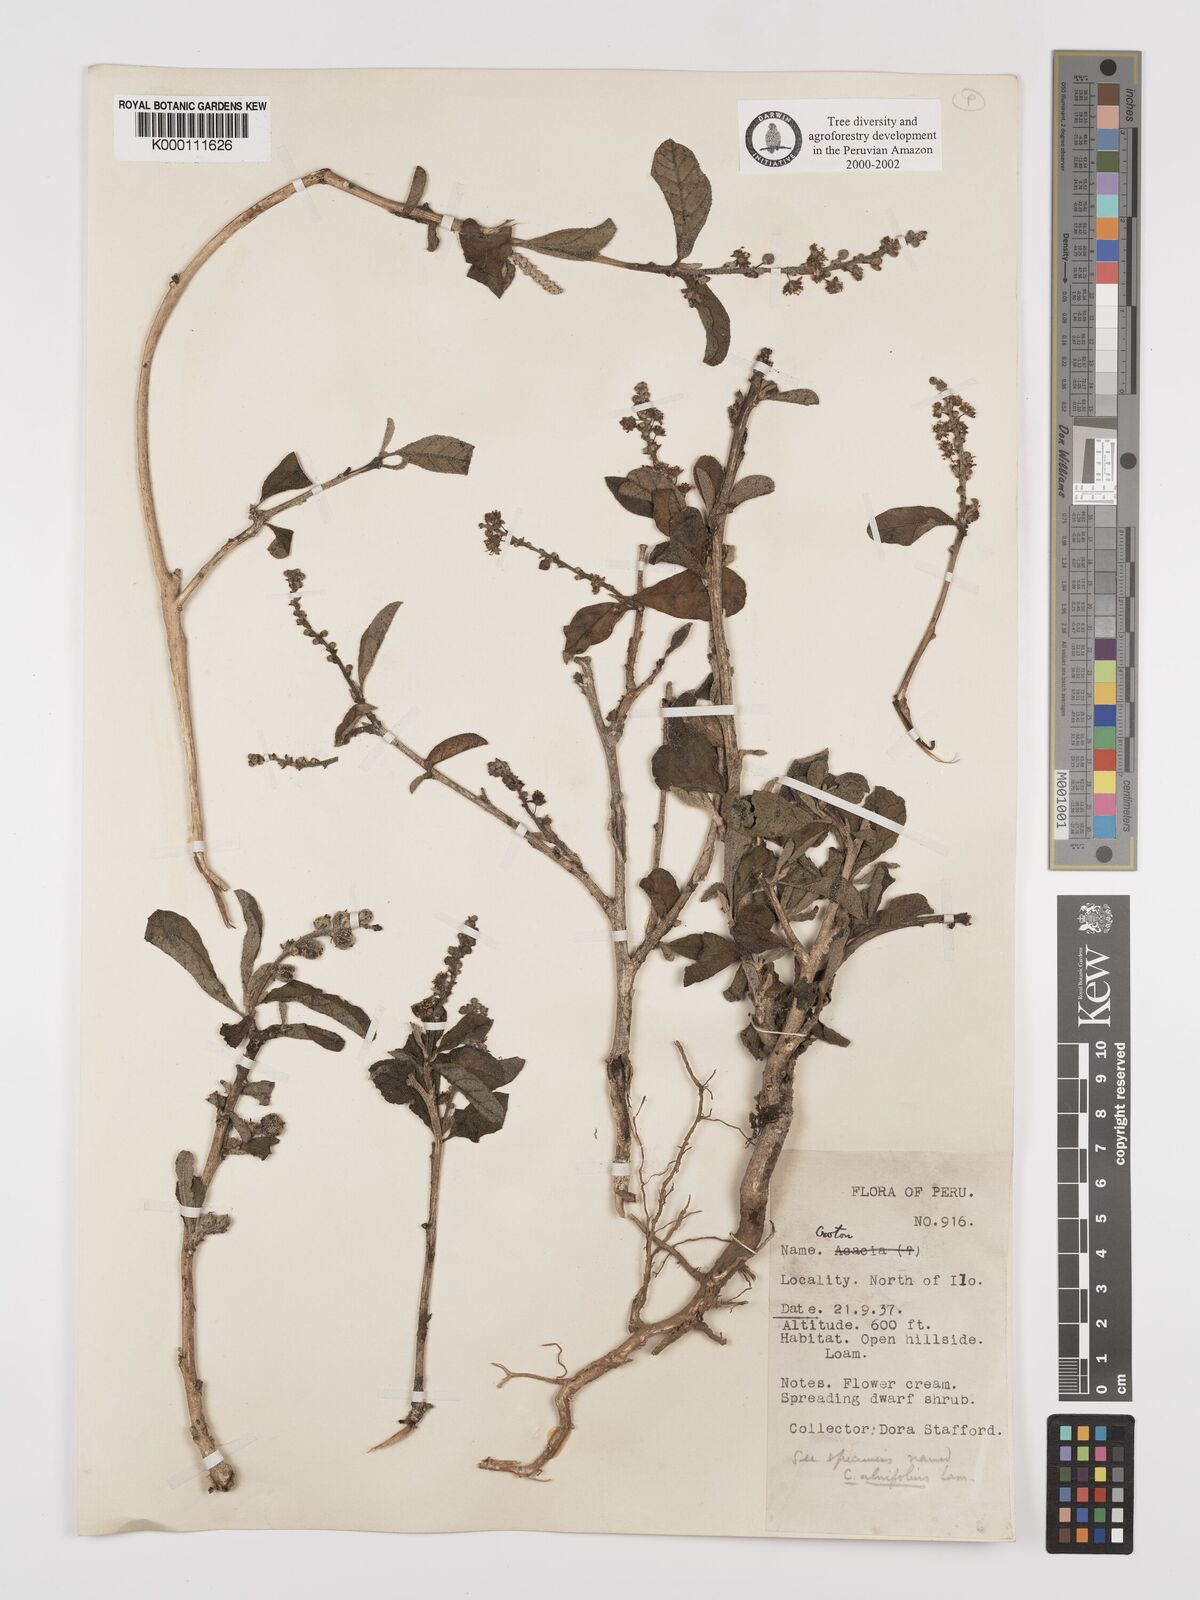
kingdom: Plantae
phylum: Tracheophyta
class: Magnoliopsida
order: Malpighiales
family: Euphorbiaceae
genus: Croton
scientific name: Croton alnifolius
